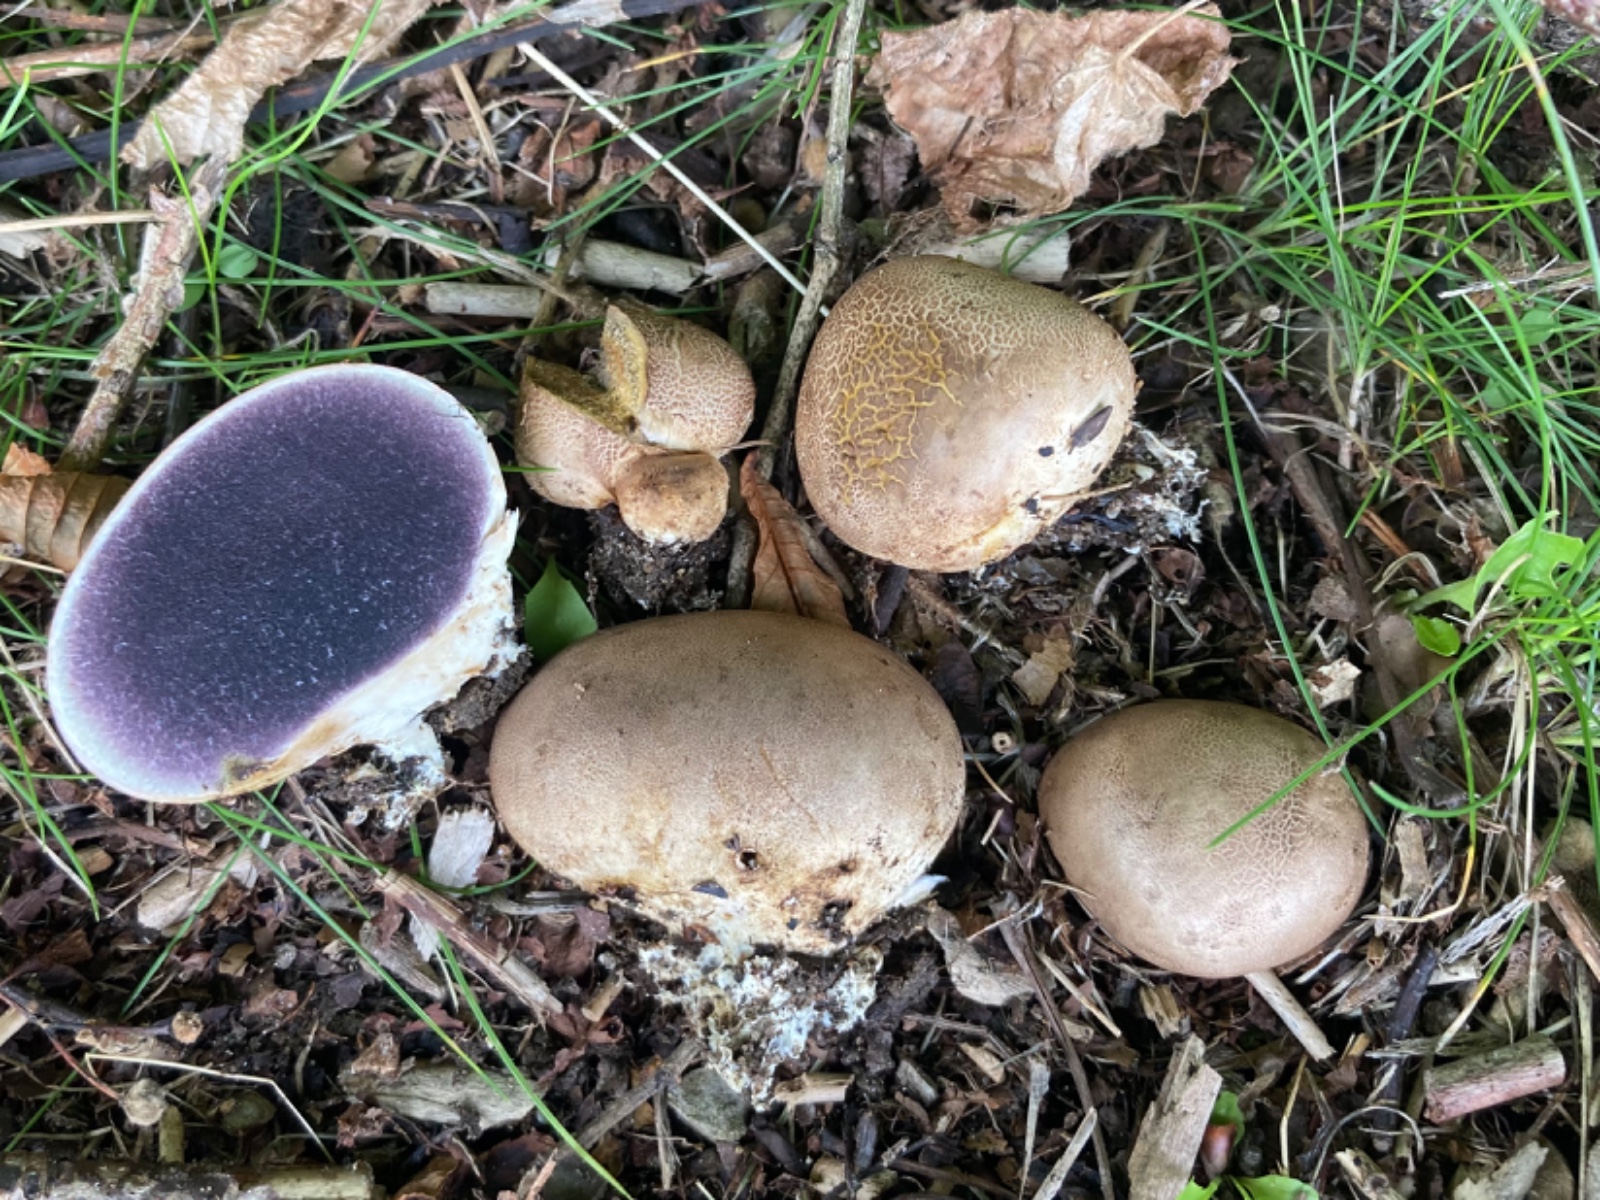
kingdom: Fungi
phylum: Basidiomycota
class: Agaricomycetes
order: Boletales
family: Sclerodermataceae
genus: Scleroderma
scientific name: Scleroderma bovista
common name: bovist-bruskbold
